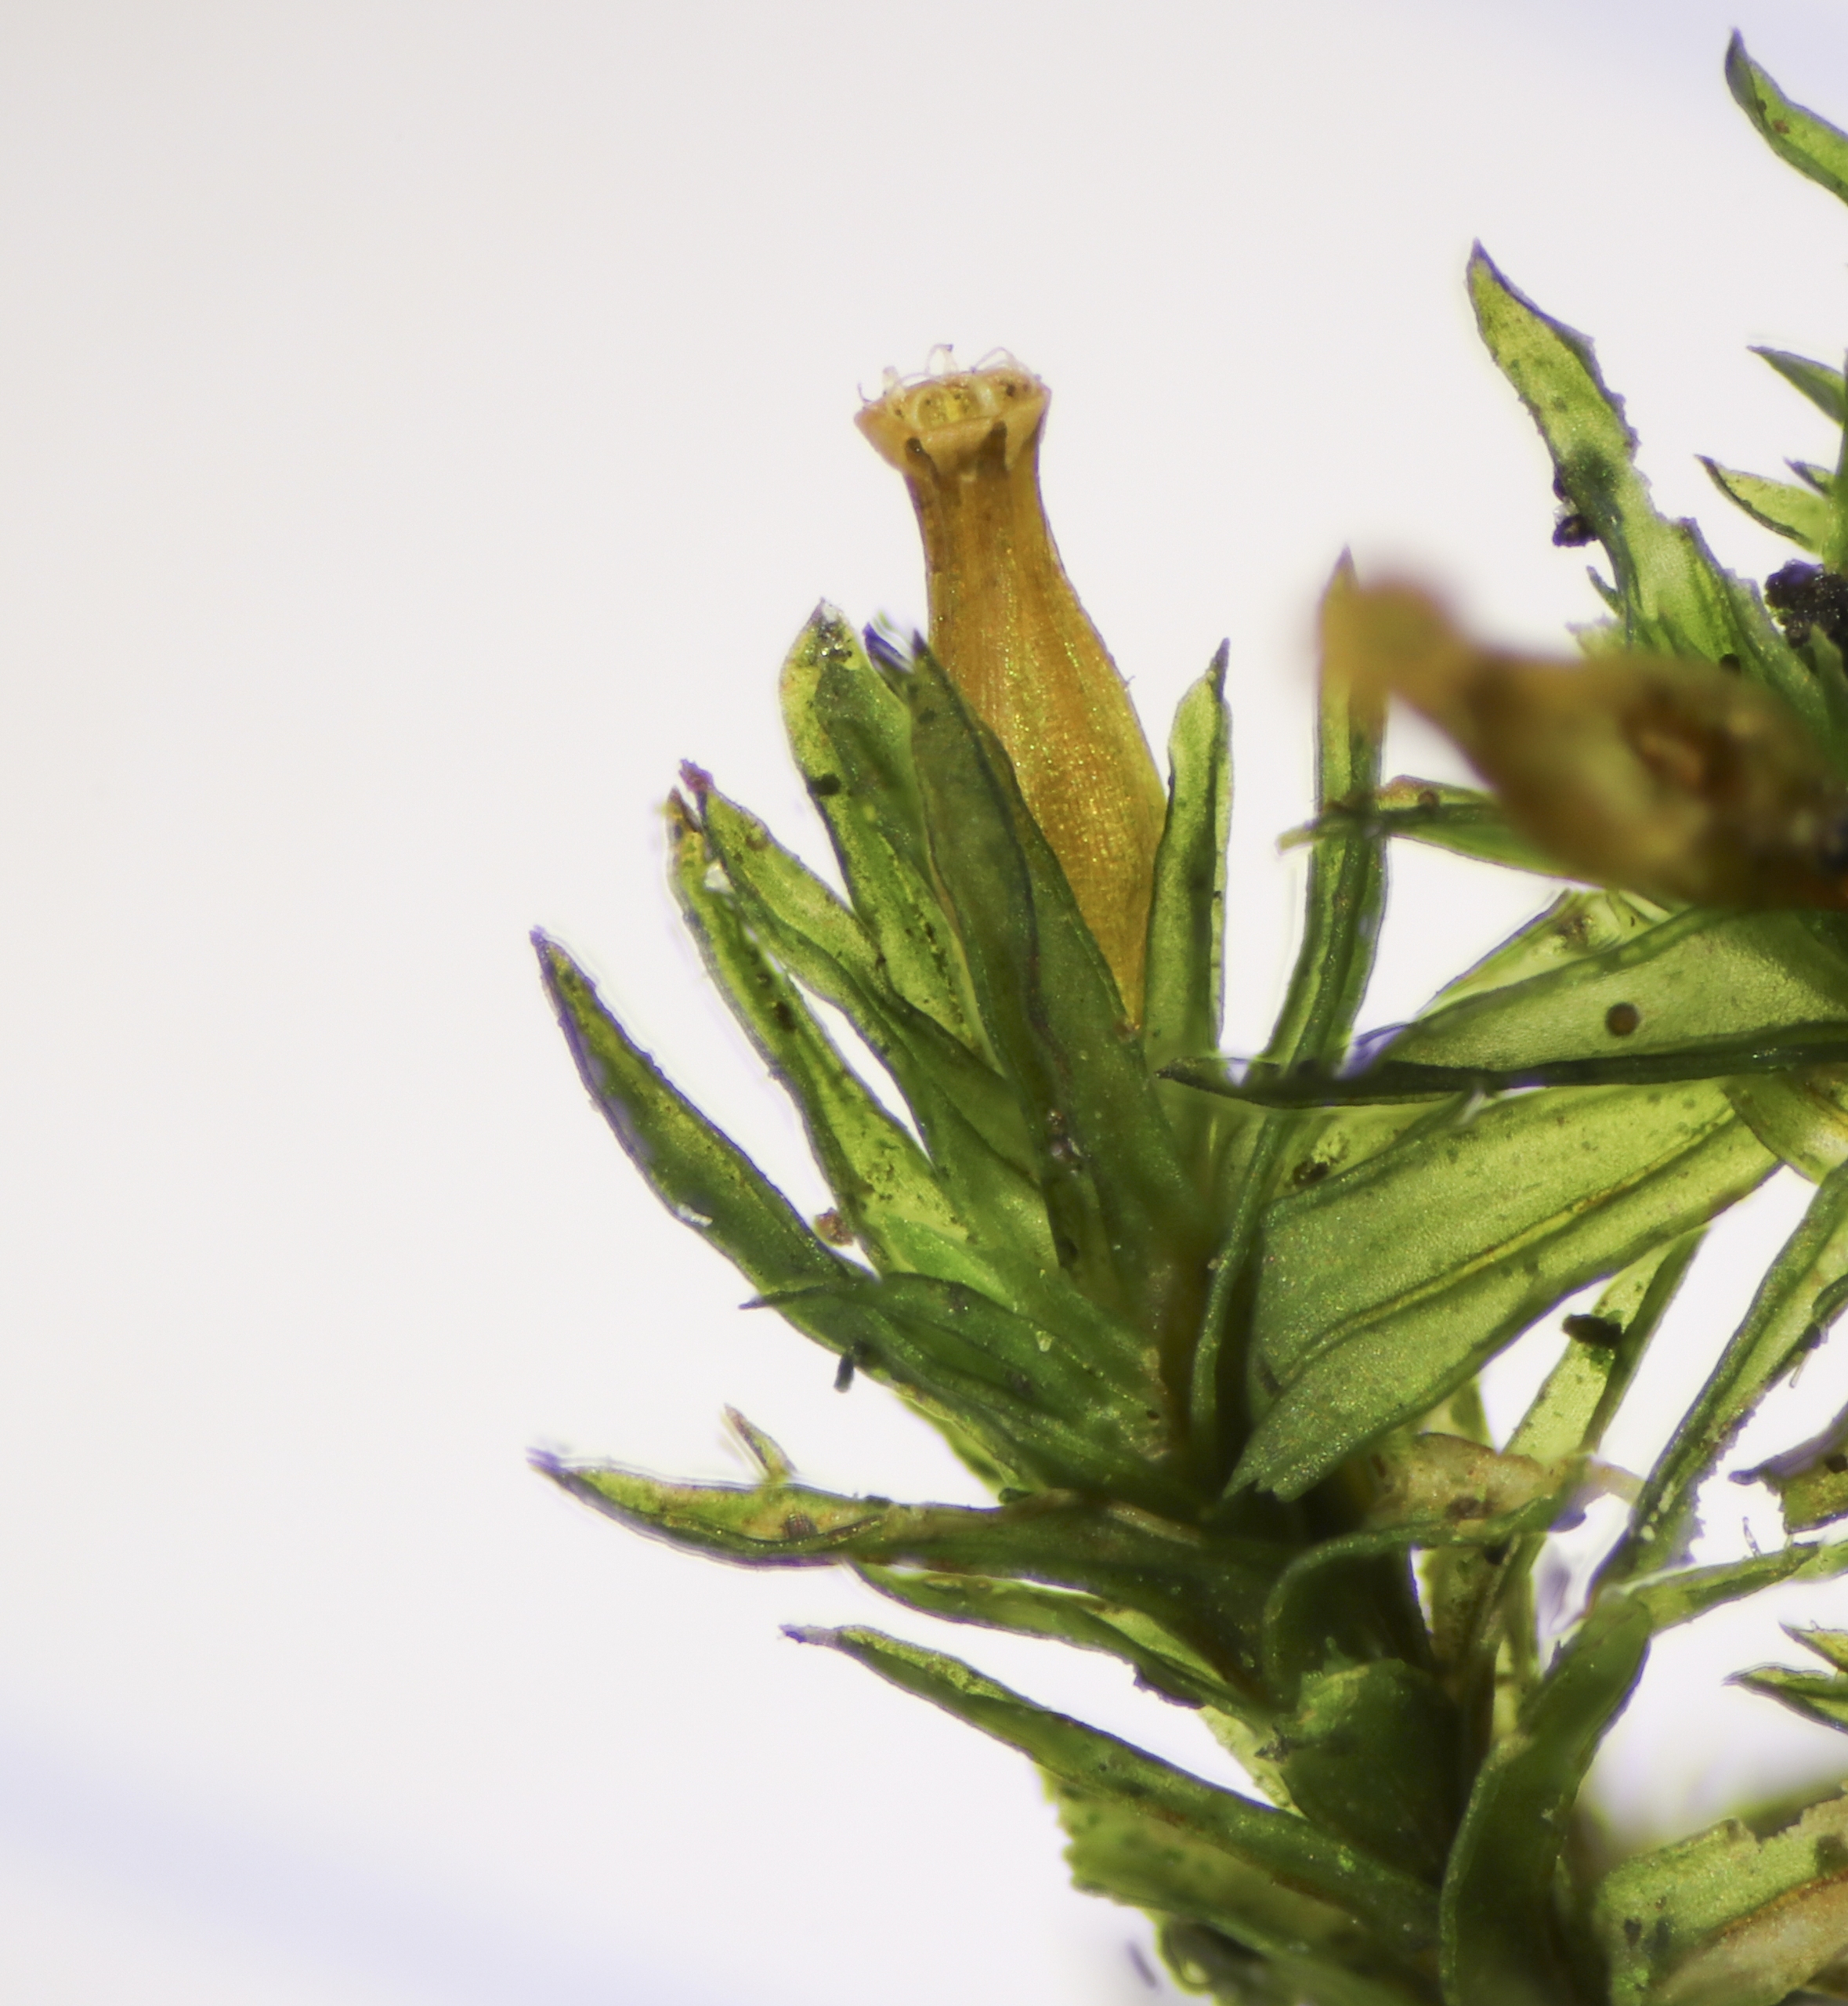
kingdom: Plantae
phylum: Bryophyta
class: Bryopsida
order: Orthotrichales
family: Orthotrichaceae
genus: Lewinskya
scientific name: Lewinskya affinis
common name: Almindelig furehætte
